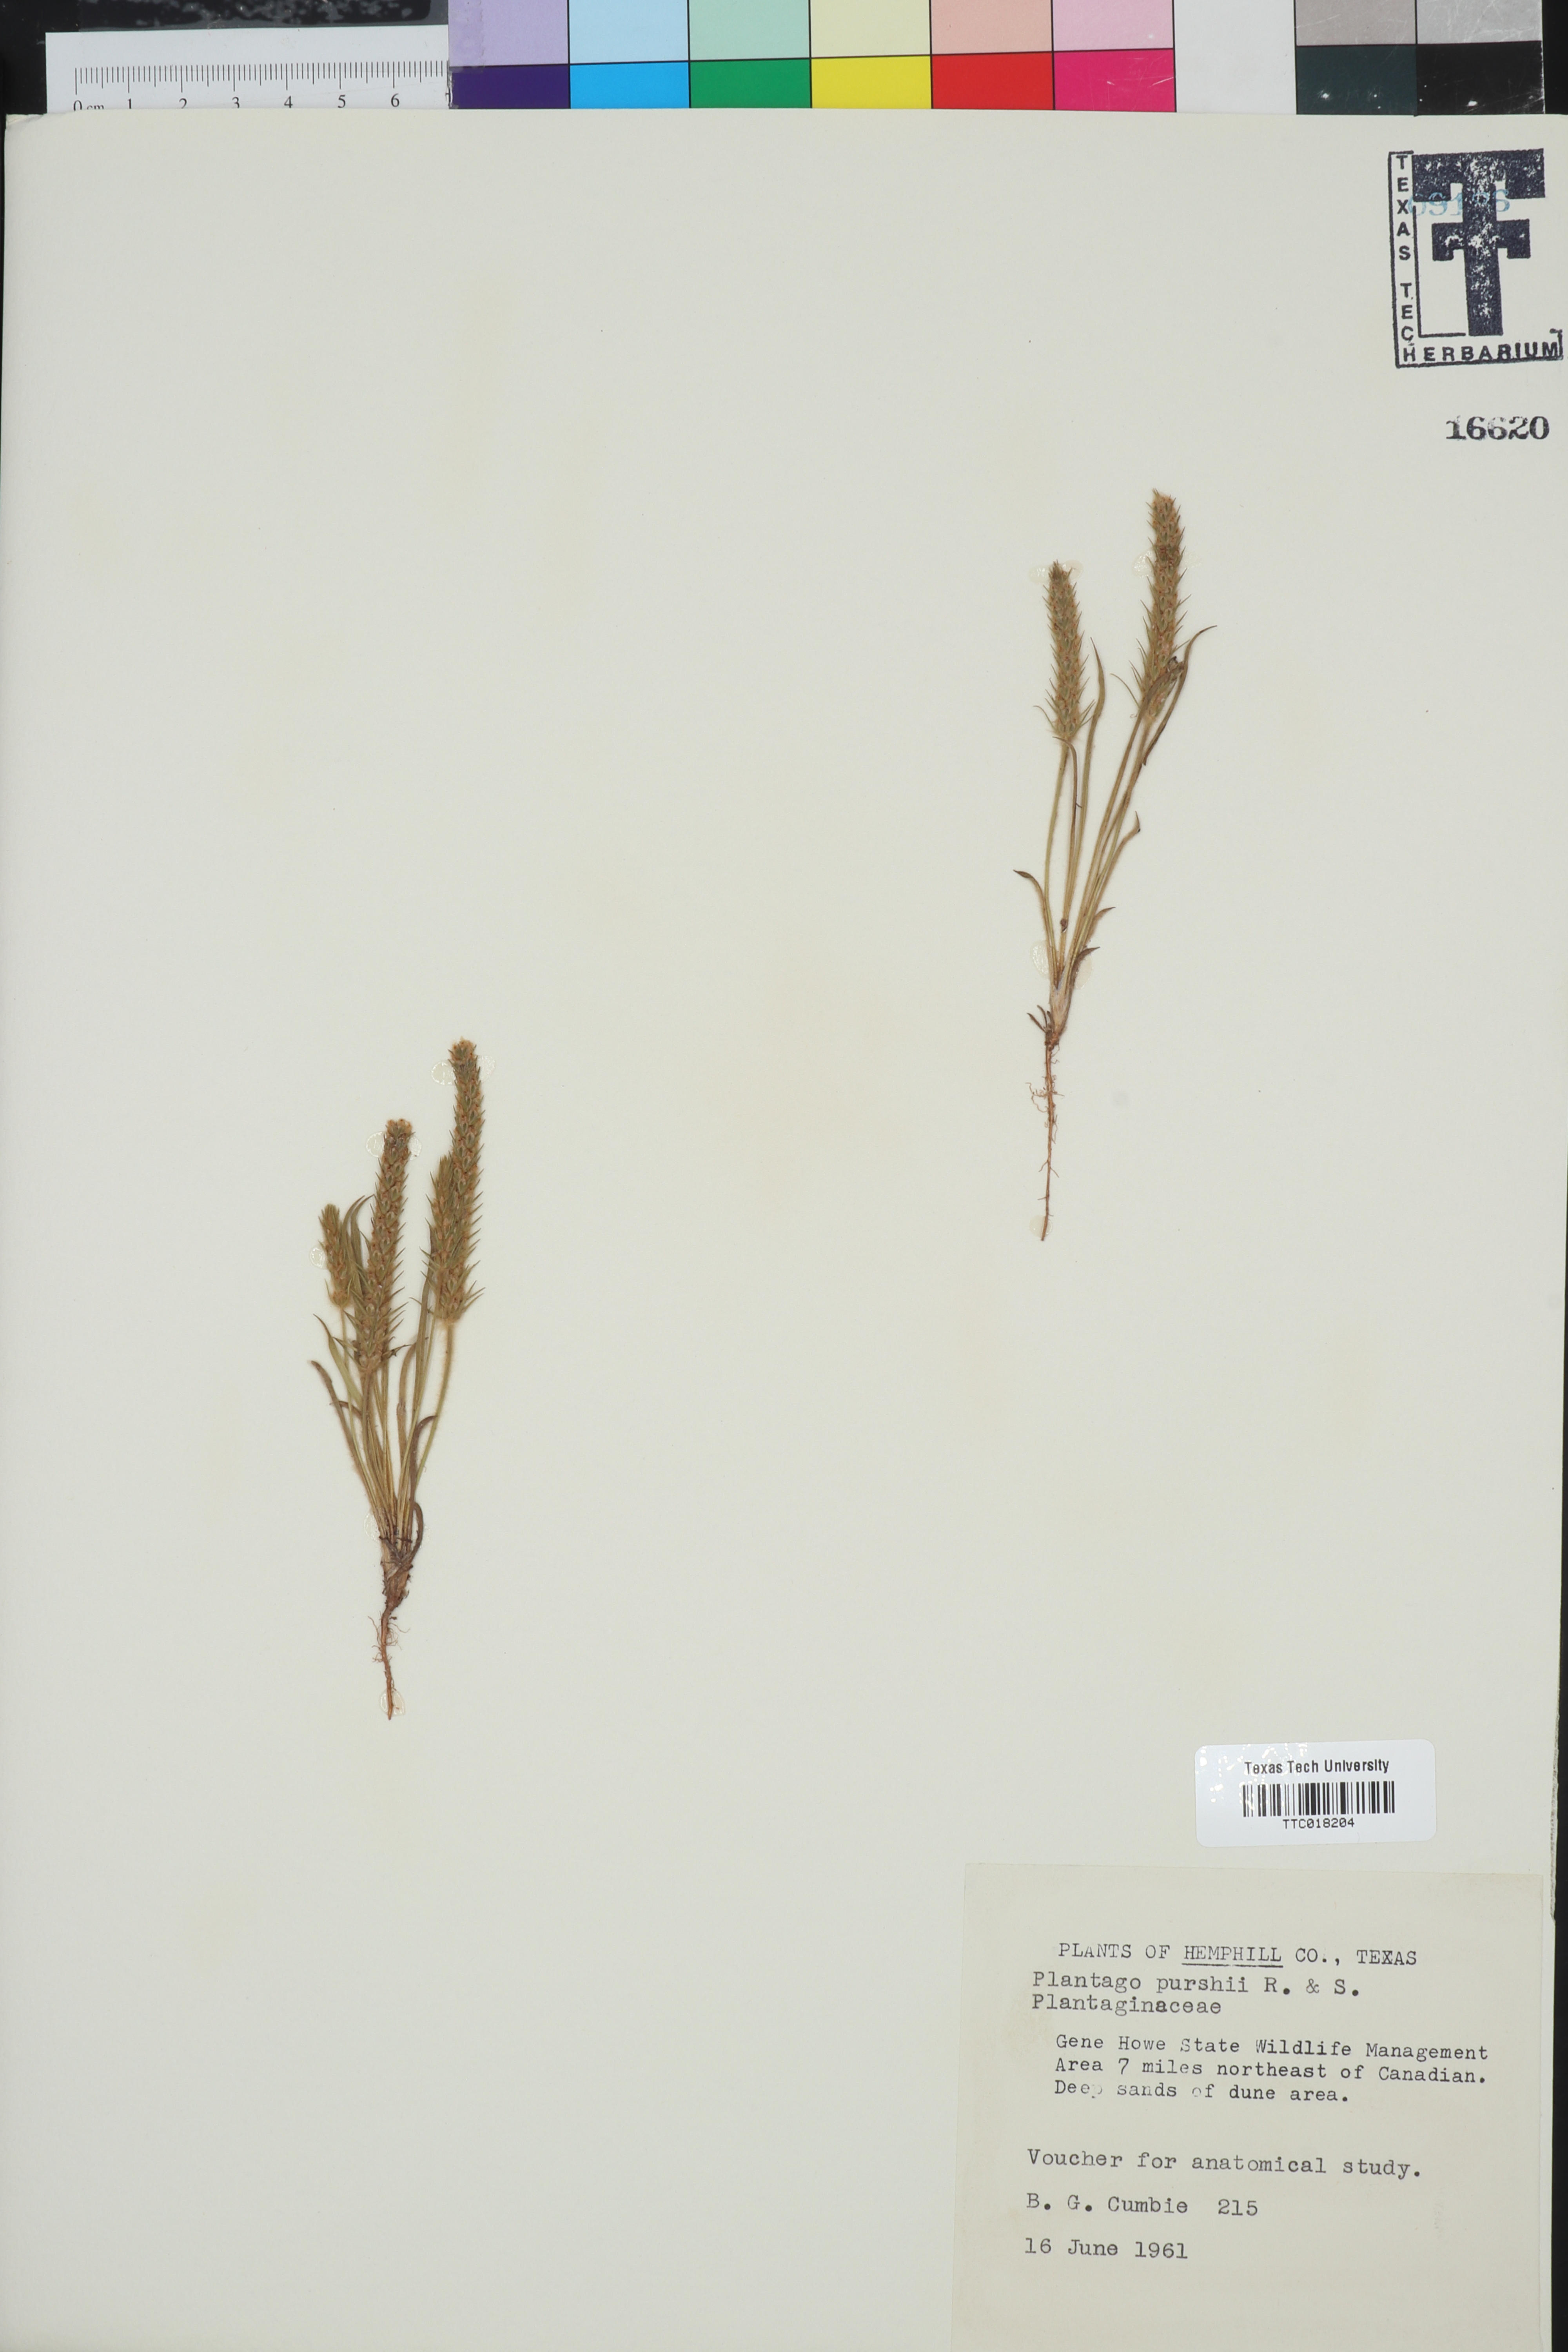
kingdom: Plantae
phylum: Tracheophyta
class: Magnoliopsida
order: Lamiales
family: Plantaginaceae
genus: Plantago
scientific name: Plantago patagonica
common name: Patagonia indian-wheat
